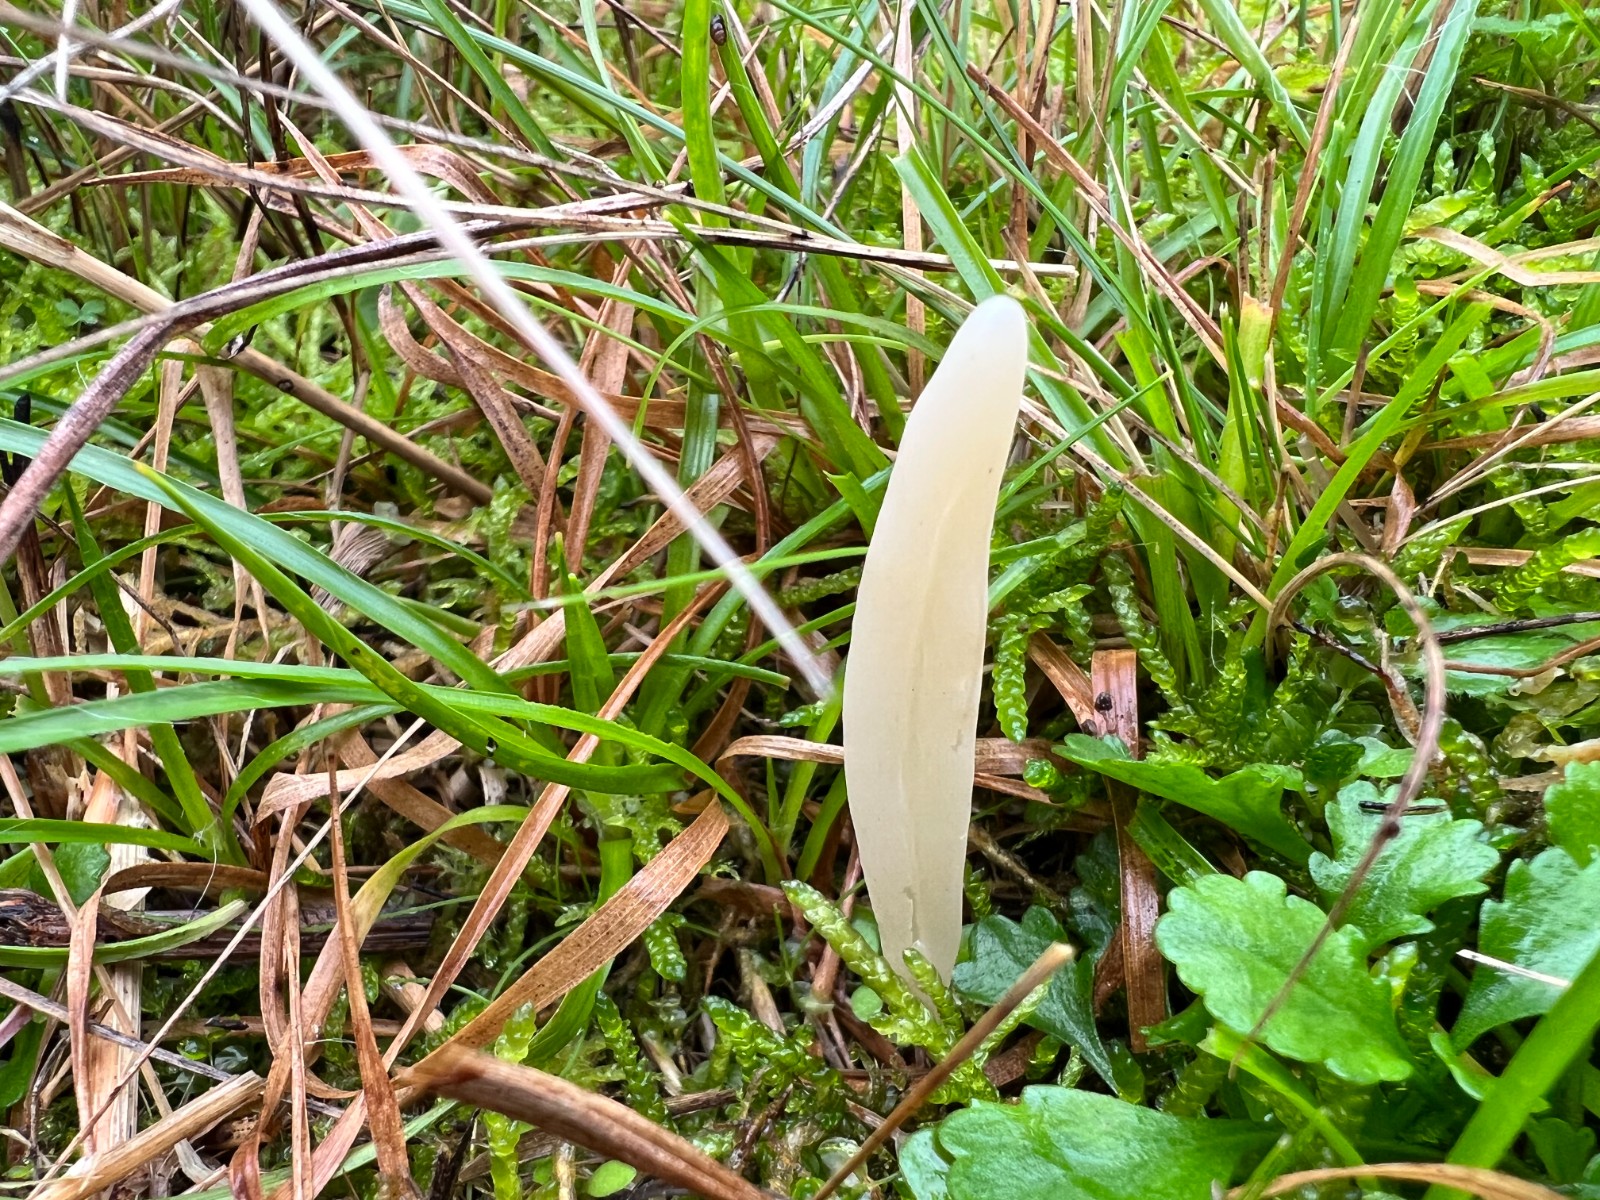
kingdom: Fungi
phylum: Basidiomycota
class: Agaricomycetes
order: Agaricales
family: Clavariaceae
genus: Clavaria
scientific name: Clavaria tenuipes
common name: isabellafarvet køllesvamp
